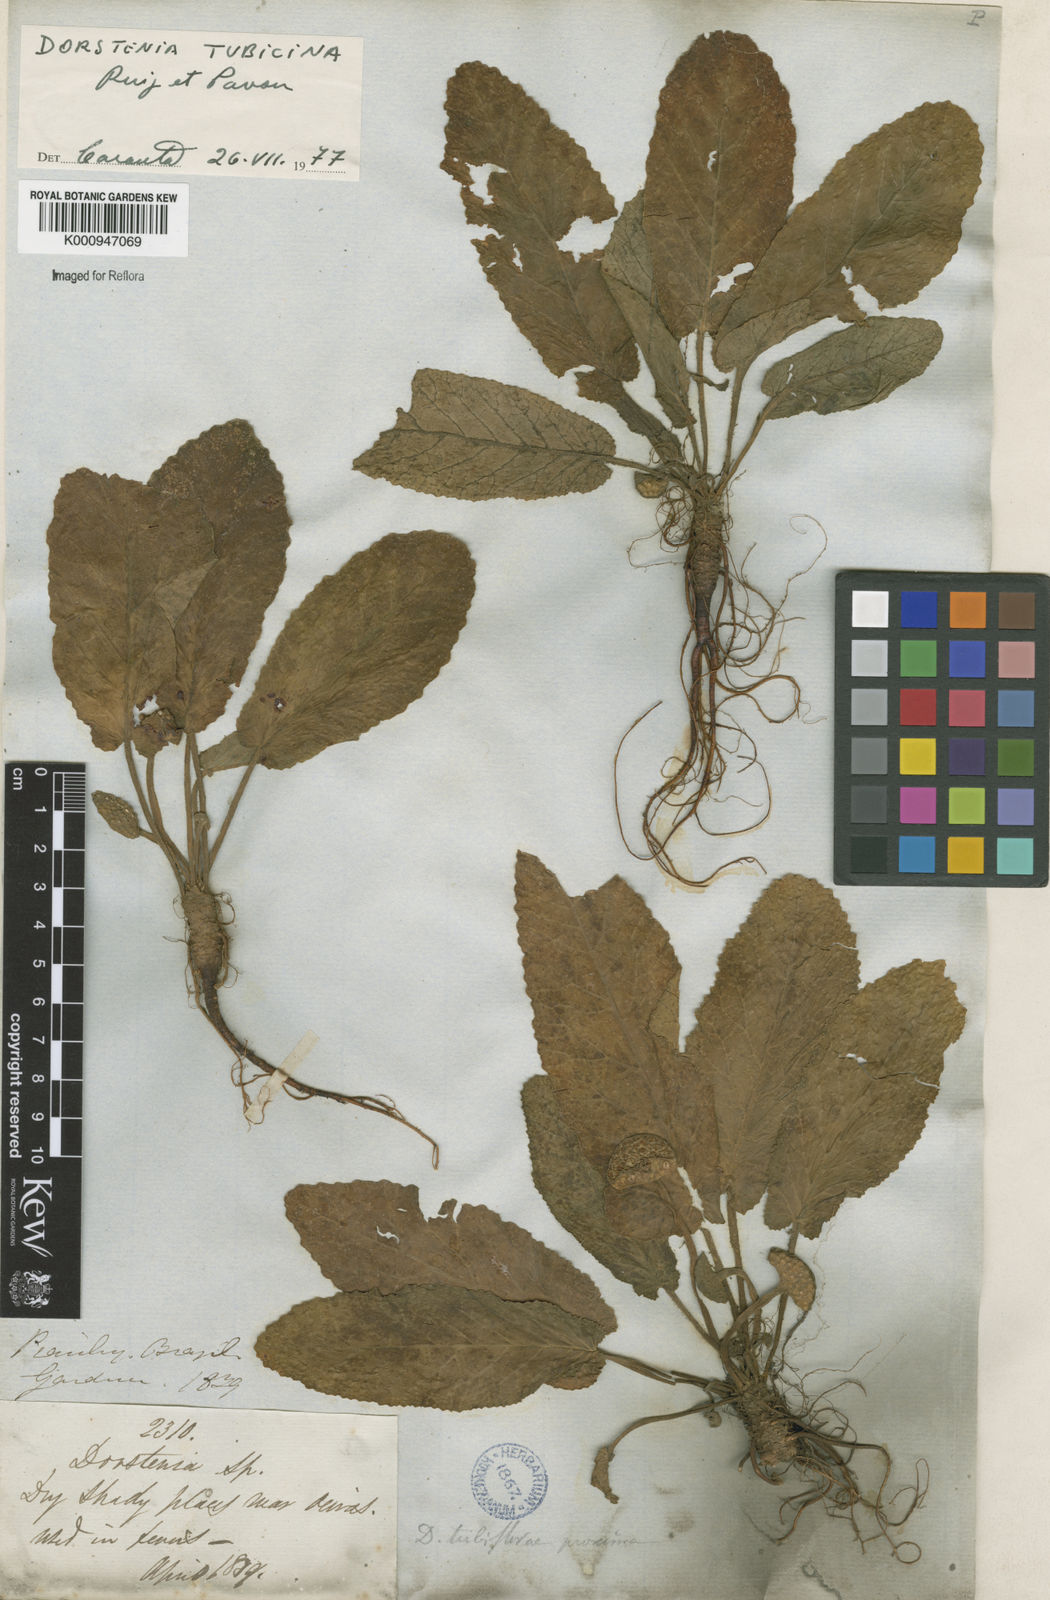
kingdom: Plantae
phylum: Tracheophyta
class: Magnoliopsida
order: Rosales
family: Moraceae
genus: Dorstenia
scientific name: Dorstenia brasiliensis
